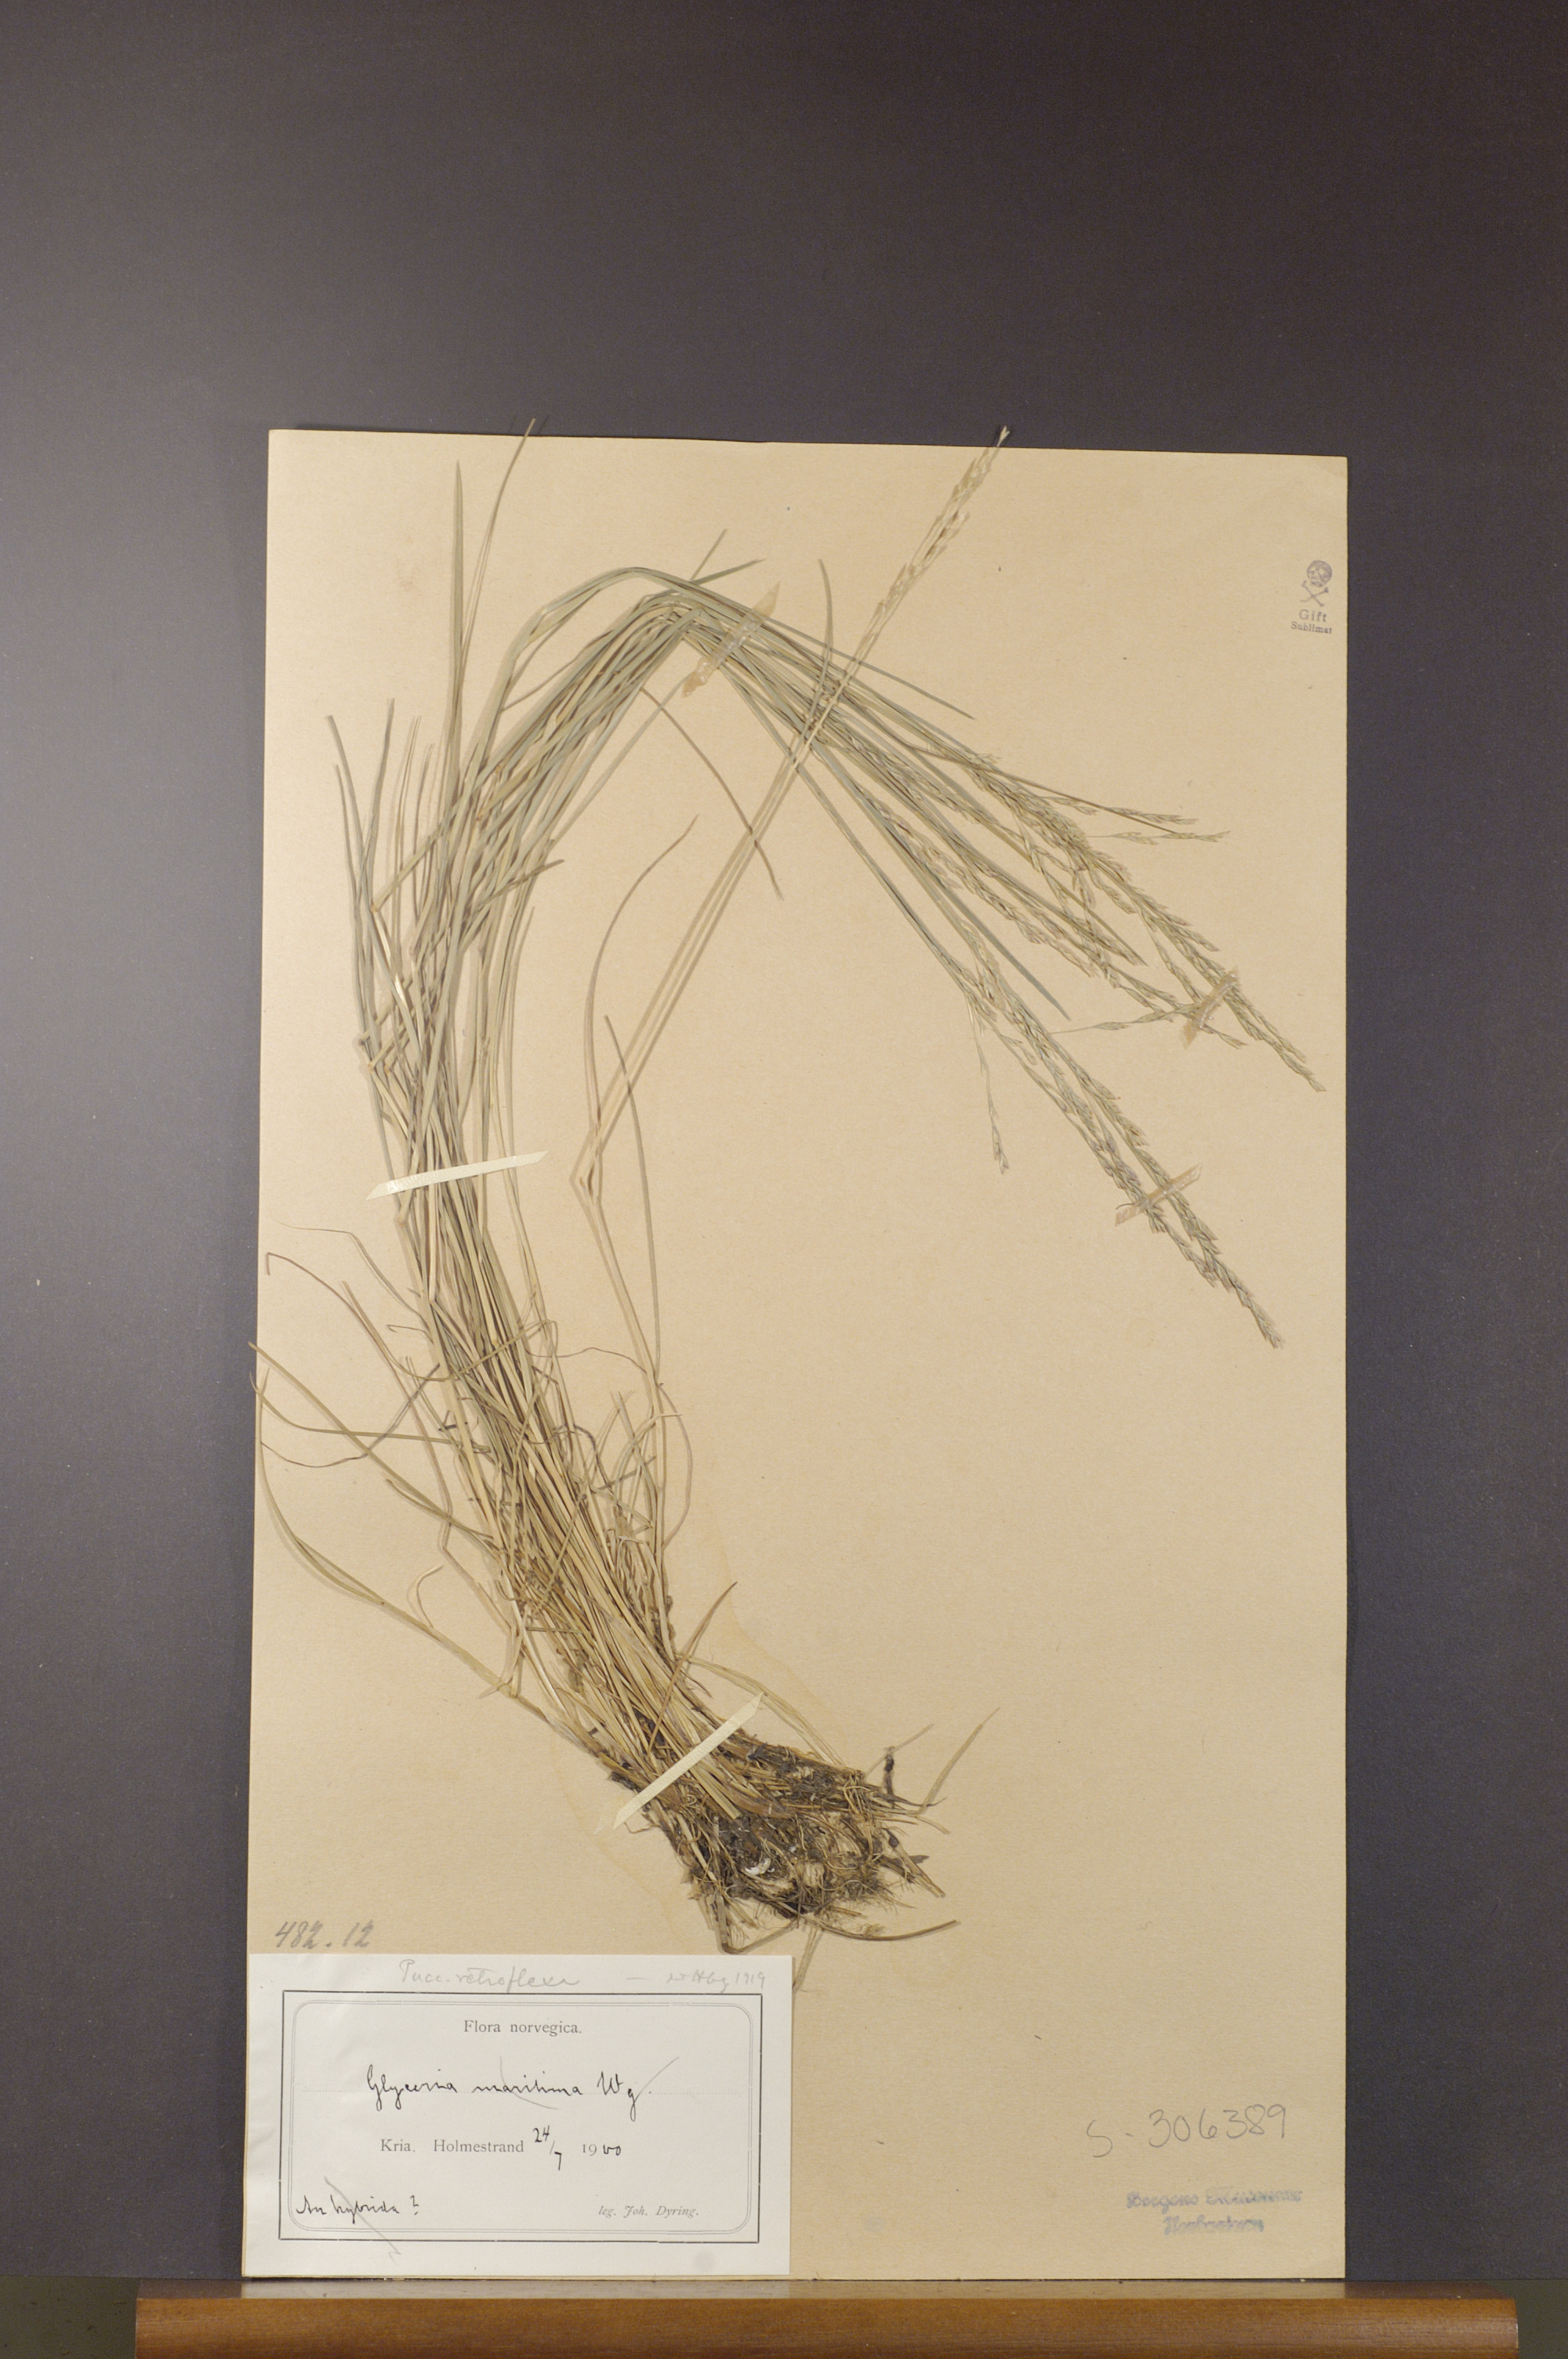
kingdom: Plantae
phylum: Tracheophyta
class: Liliopsida
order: Poales
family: Poaceae
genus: Puccinellia
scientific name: Puccinellia distans
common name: Weeping alkaligrass
